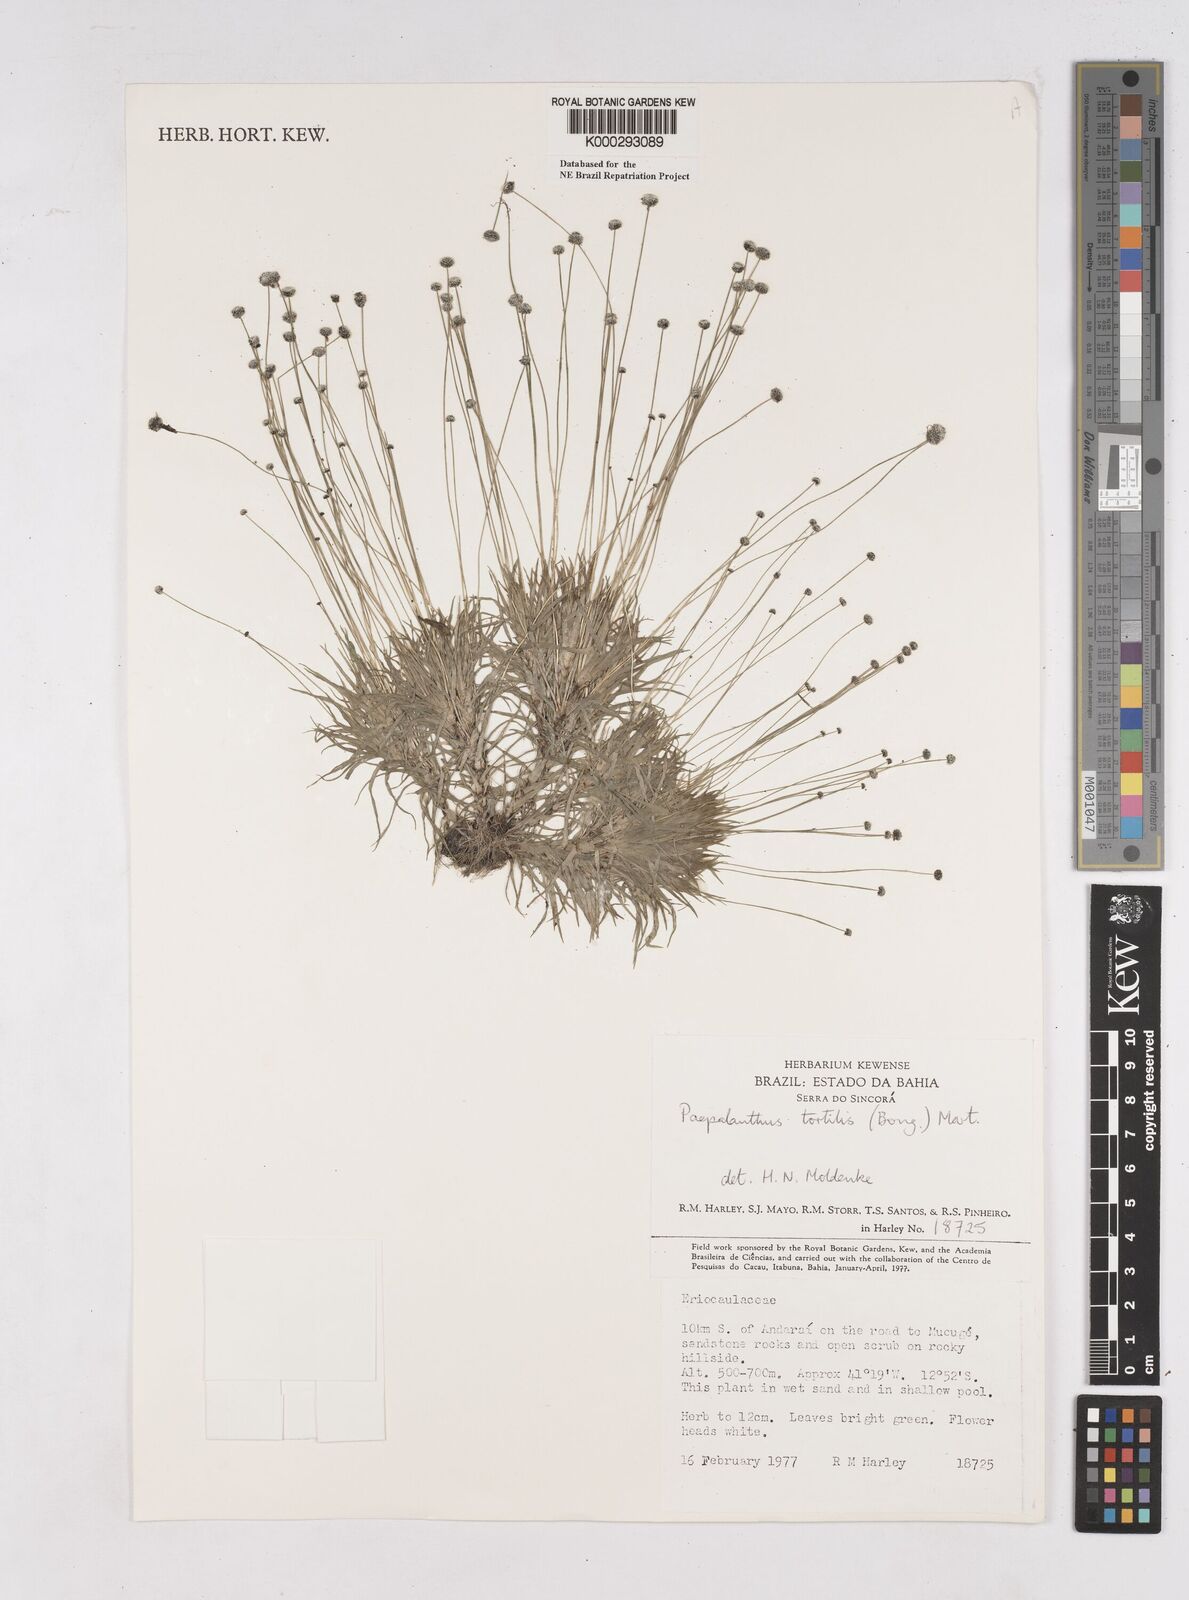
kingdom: Plantae
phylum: Tracheophyta
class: Liliopsida
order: Poales
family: Eriocaulaceae
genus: Paepalanthus
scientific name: Paepalanthus
